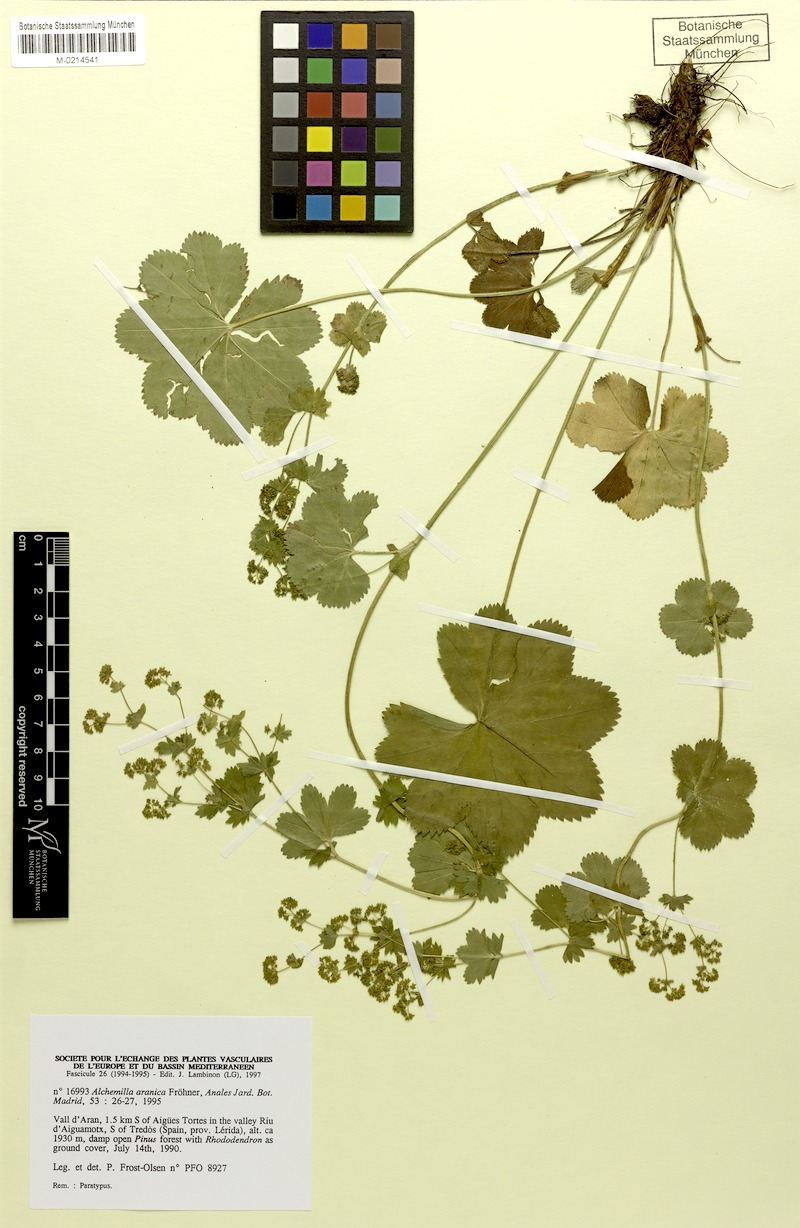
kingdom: Plantae
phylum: Tracheophyta
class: Magnoliopsida
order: Rosales
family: Rosaceae
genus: Alchemilla
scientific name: Alchemilla aranica
